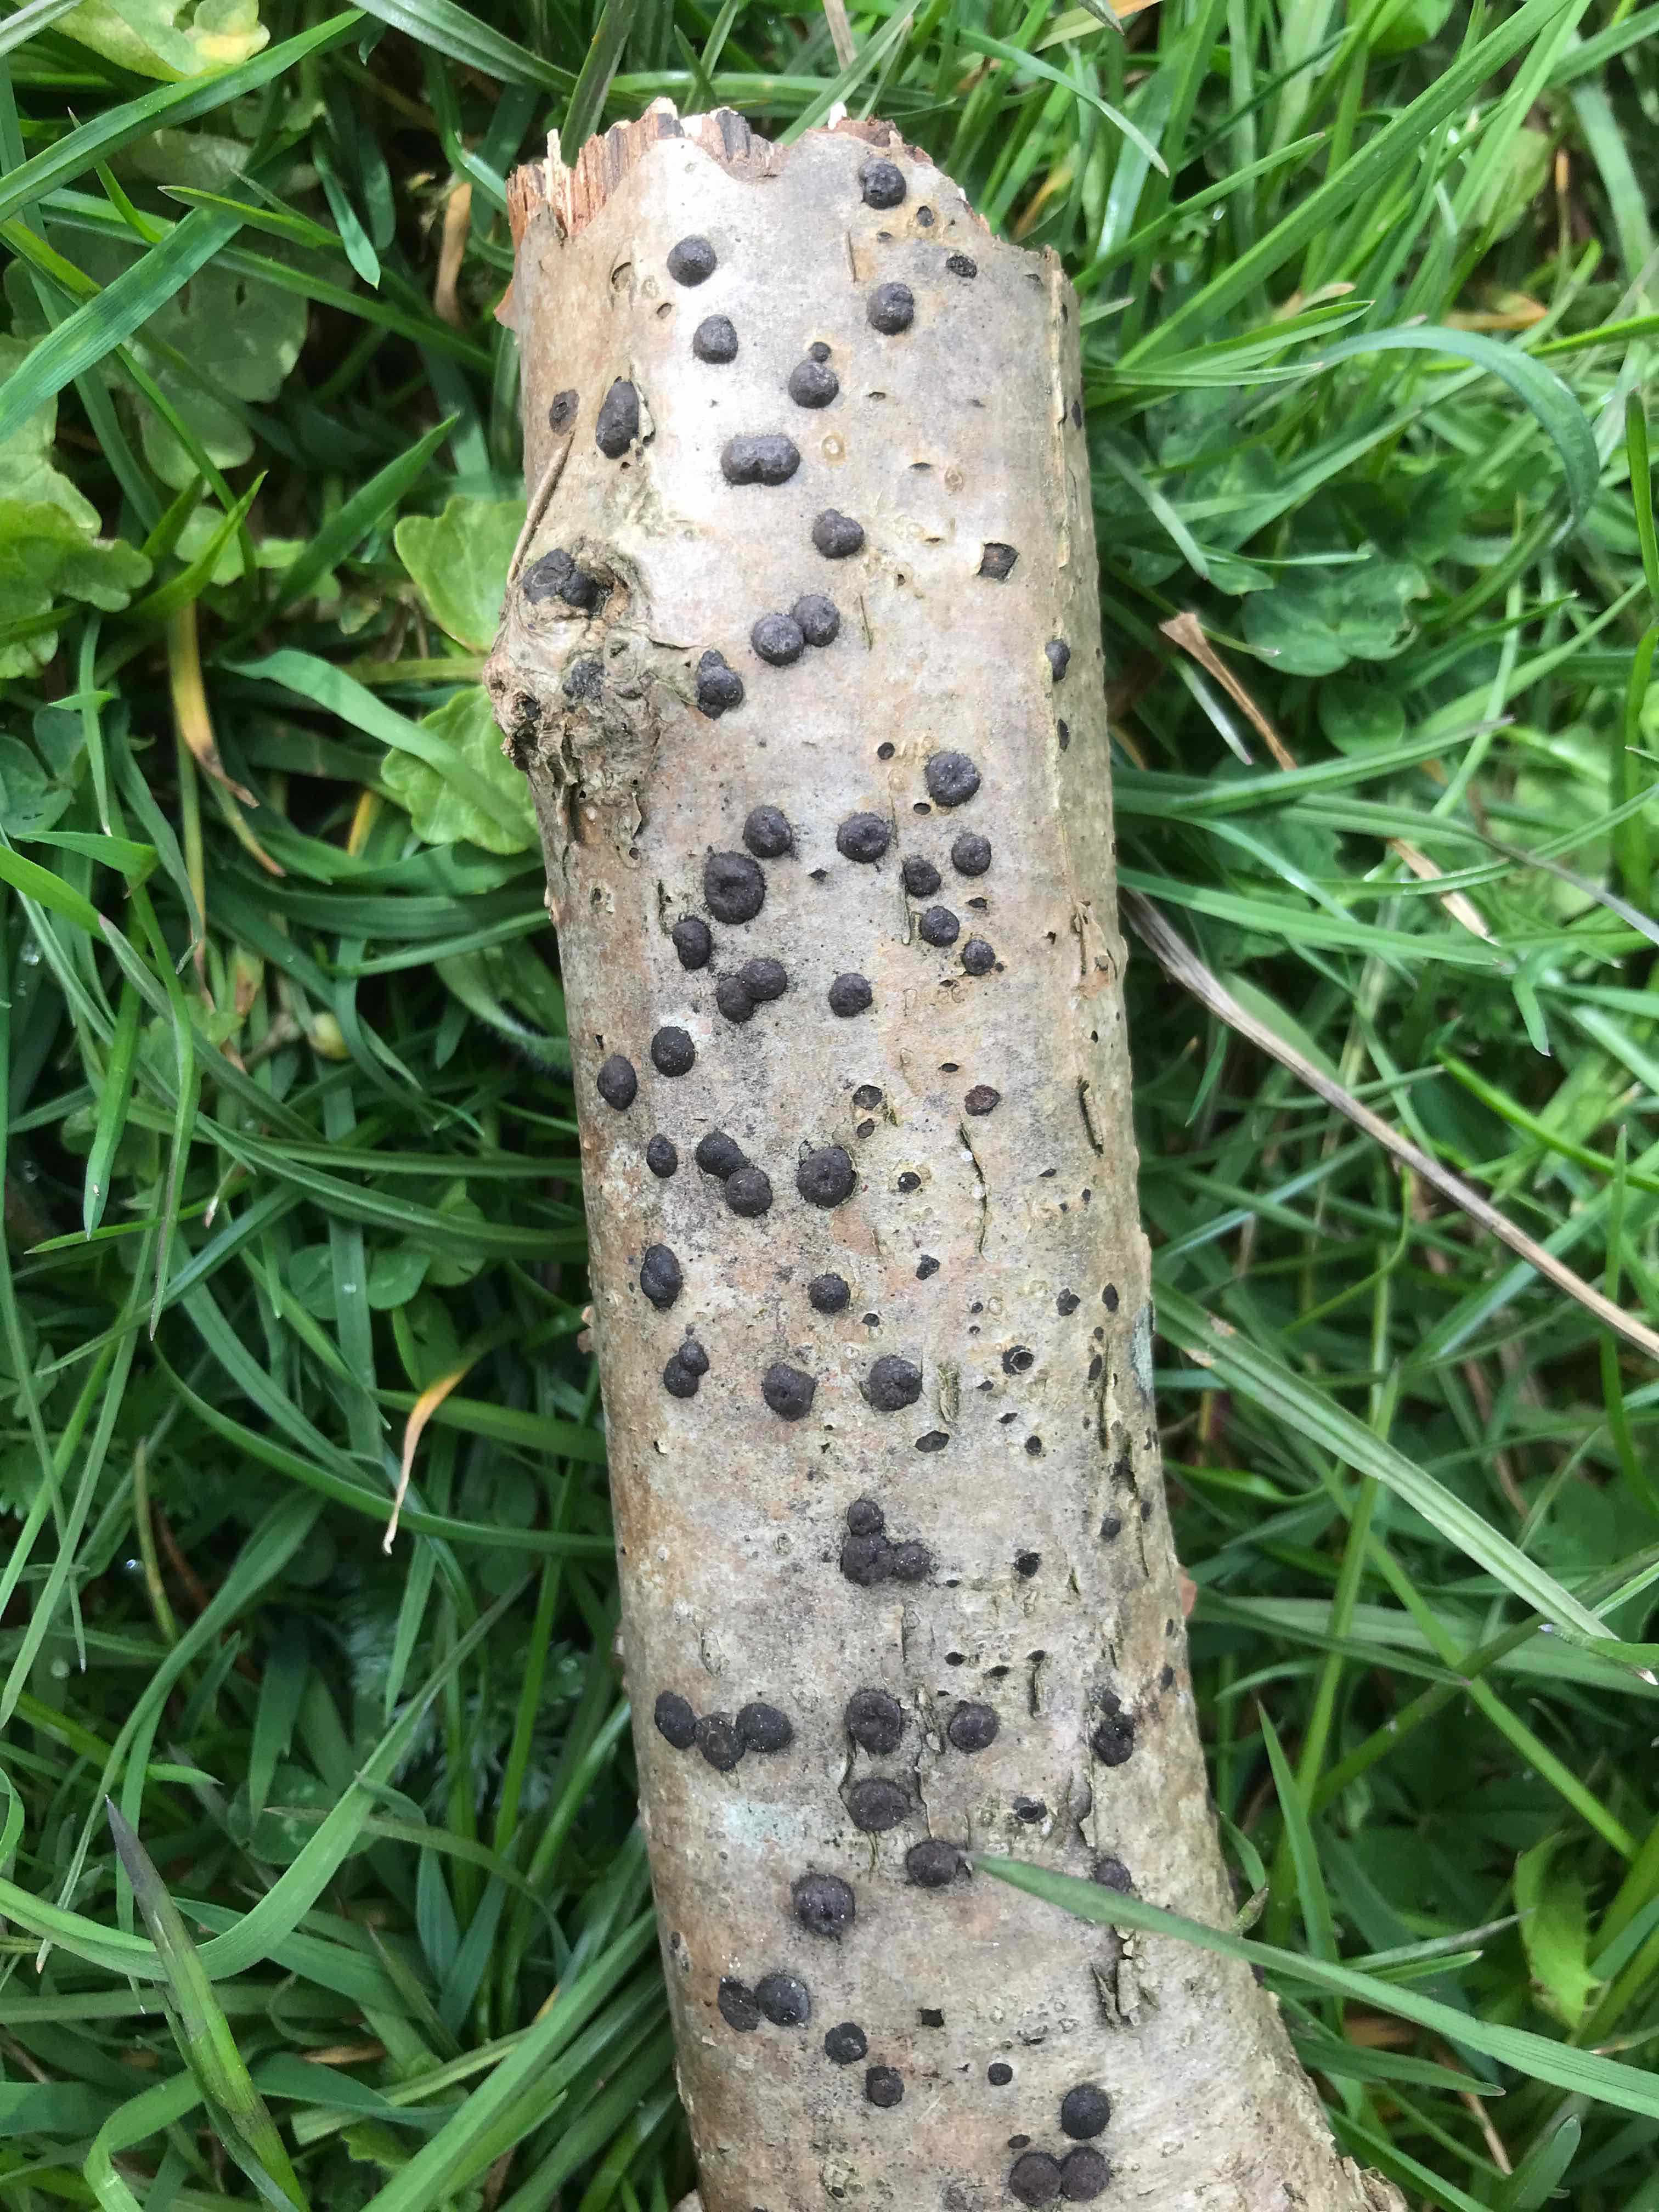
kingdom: Fungi
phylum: Ascomycota
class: Sordariomycetes
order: Xylariales
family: Hypoxylaceae
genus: Hypoxylon
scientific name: Hypoxylon fuscum
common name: kegleformet kulbær
